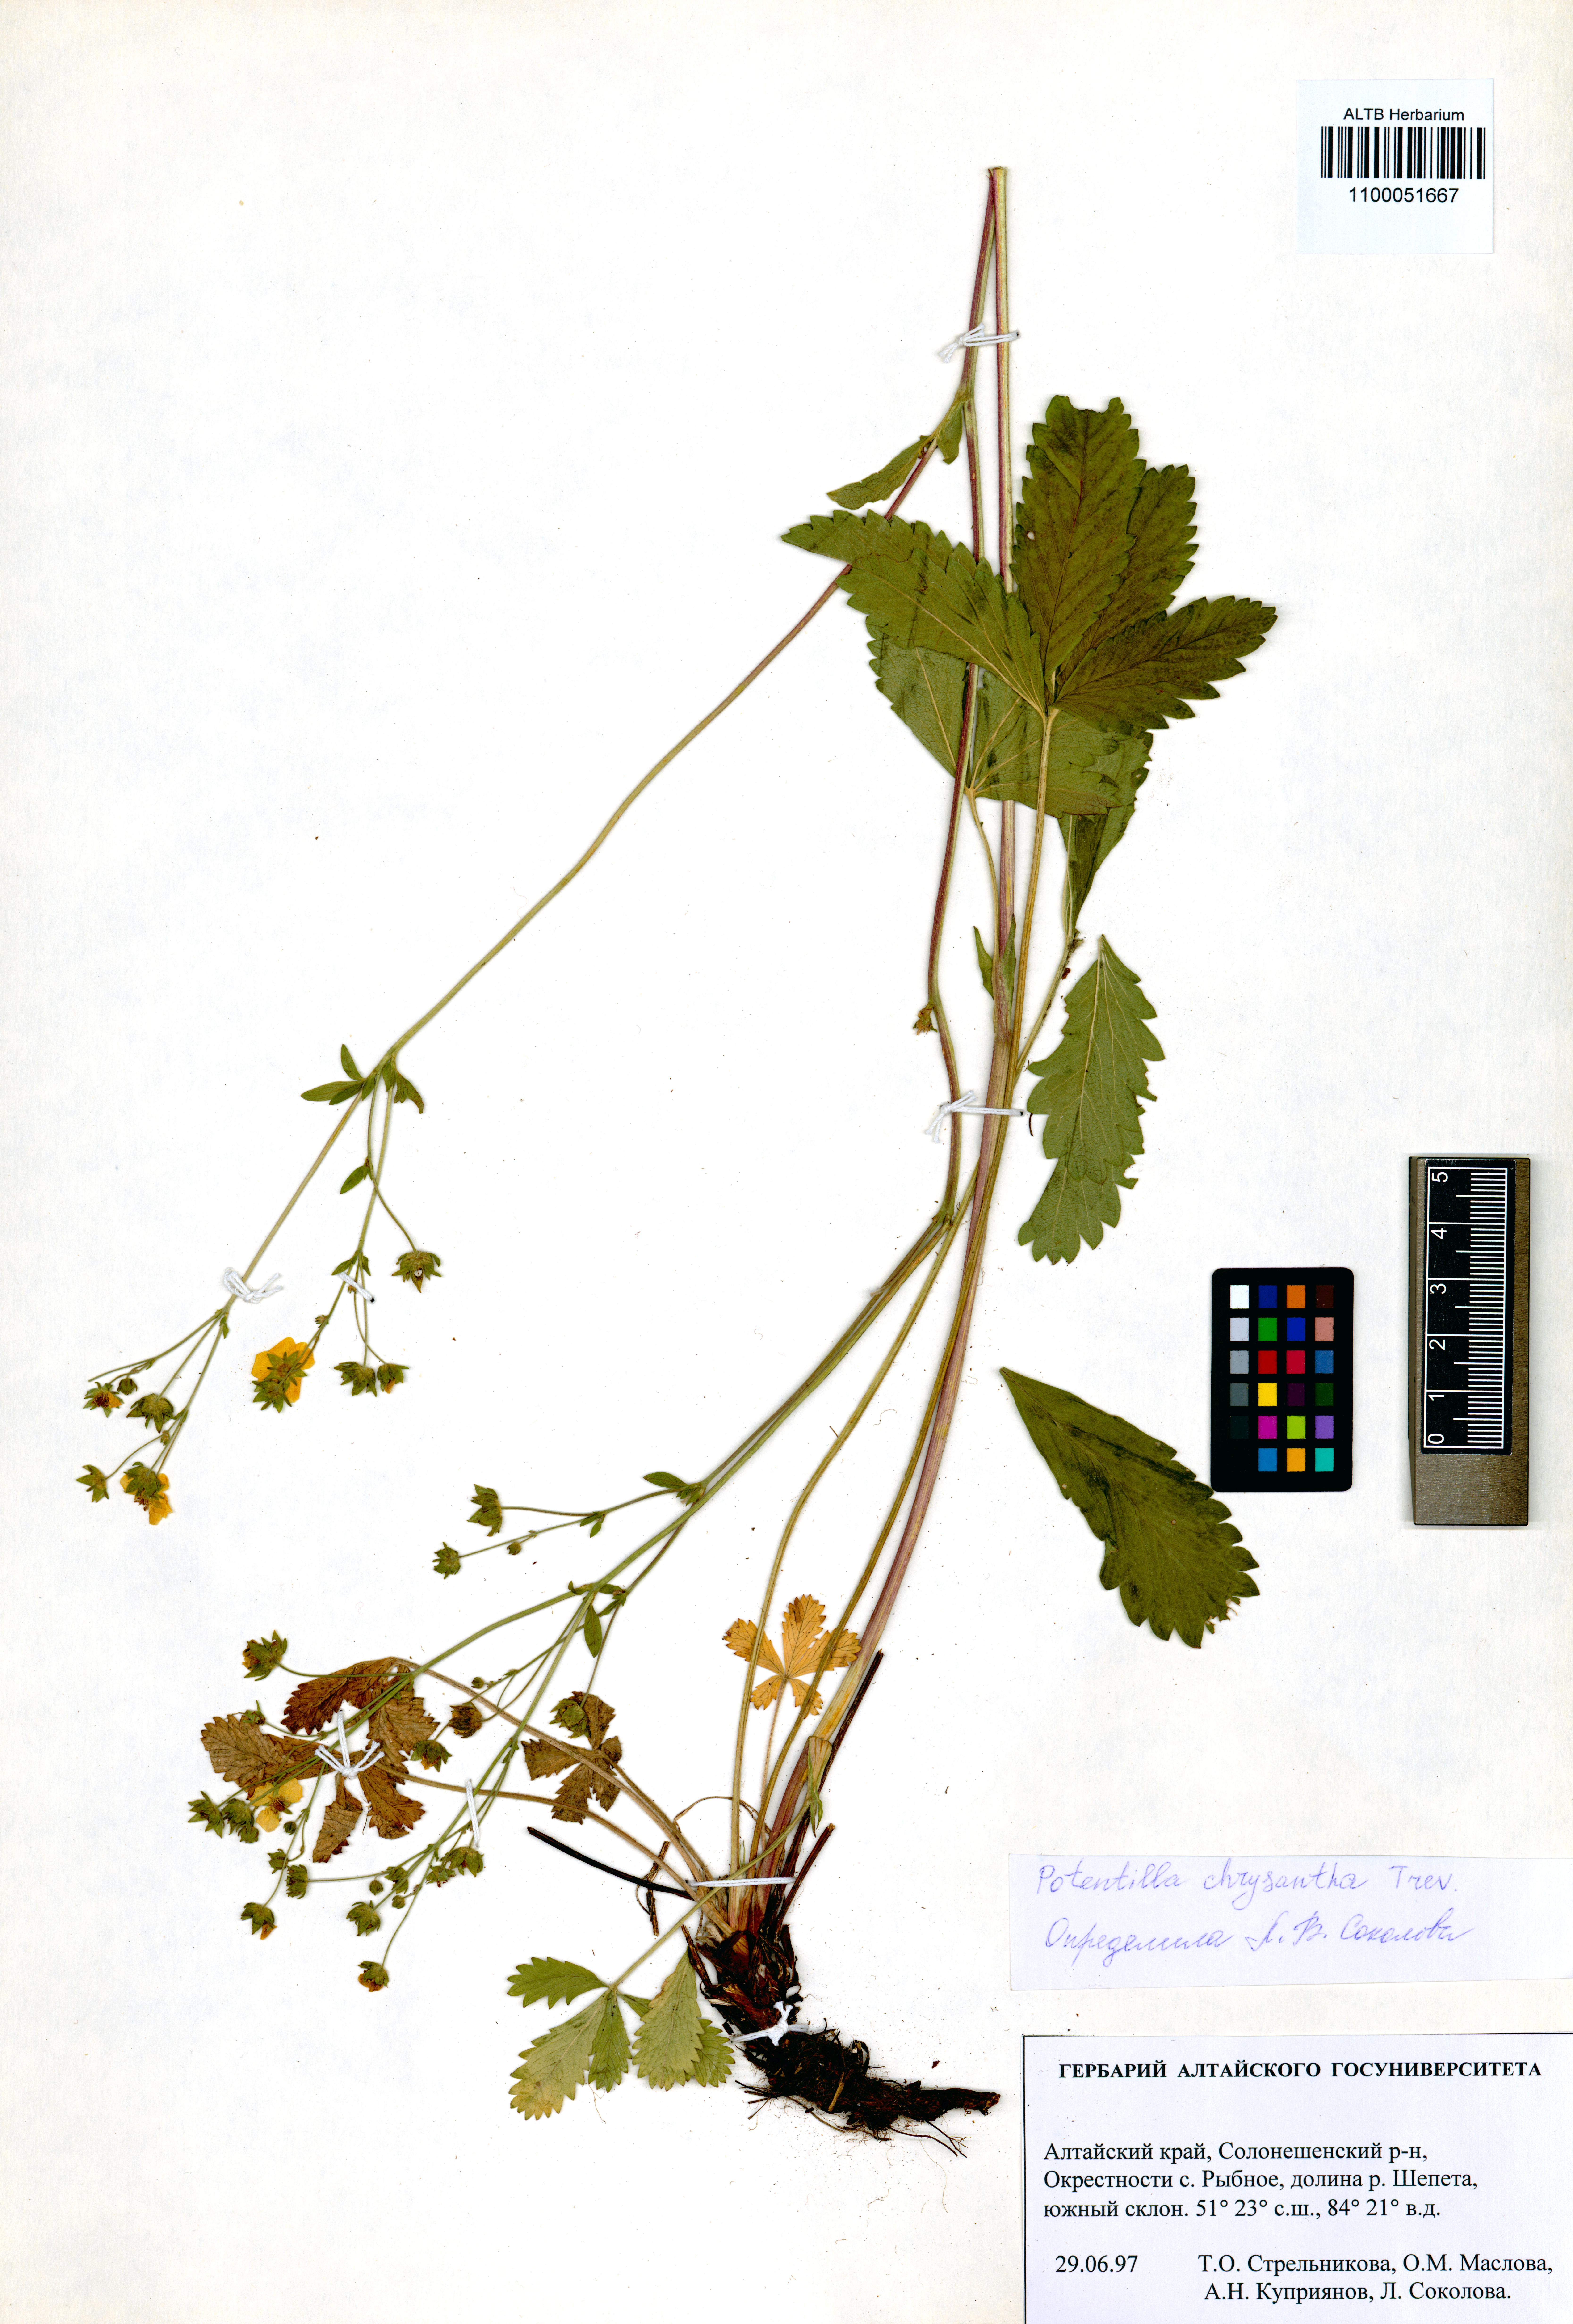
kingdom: Plantae
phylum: Tracheophyta
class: Magnoliopsida
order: Rosales
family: Rosaceae
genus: Potentilla
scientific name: Potentilla chrysantha
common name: Thuringian cinquefoil
